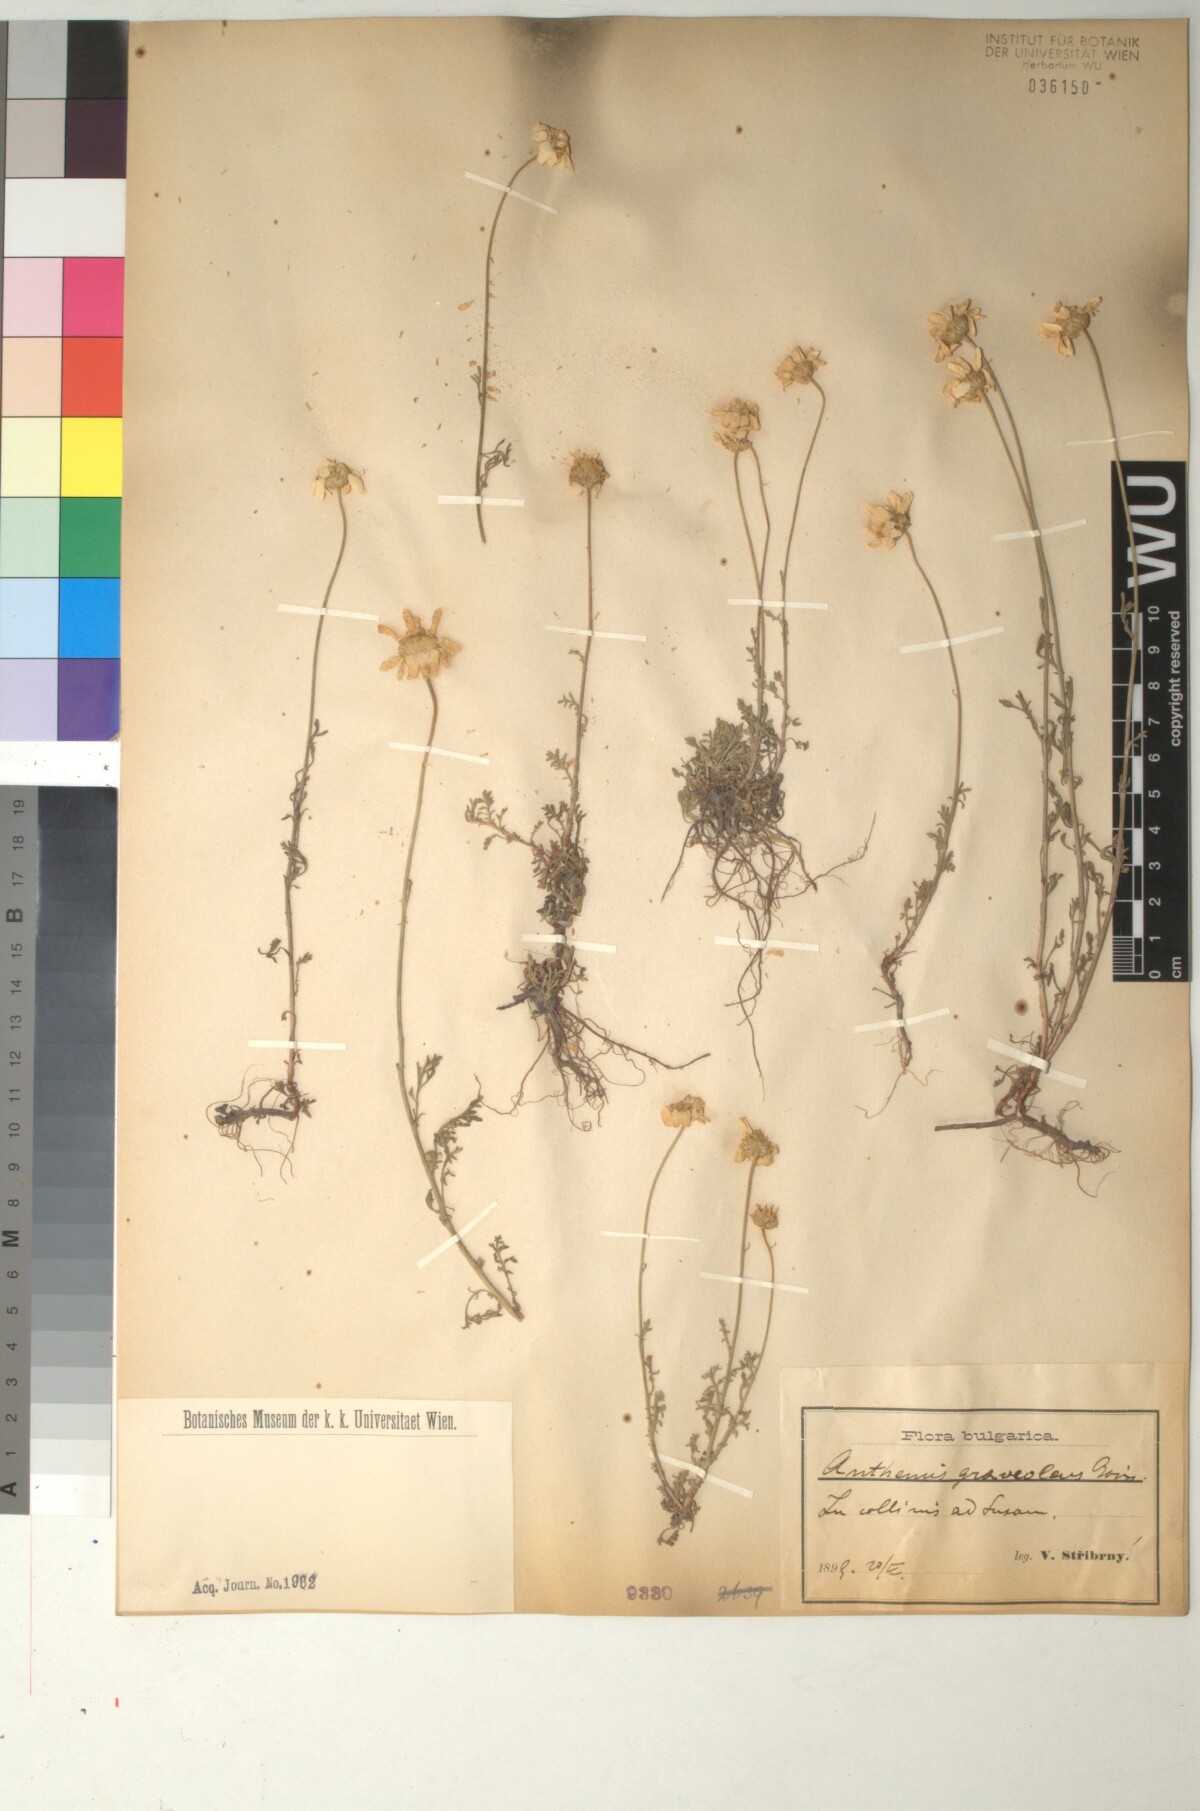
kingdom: Plantae
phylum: Tracheophyta
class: Magnoliopsida
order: Asterales
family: Asteraceae
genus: Anthemis
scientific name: Anthemis cretica
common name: Mountain dog-daisy
